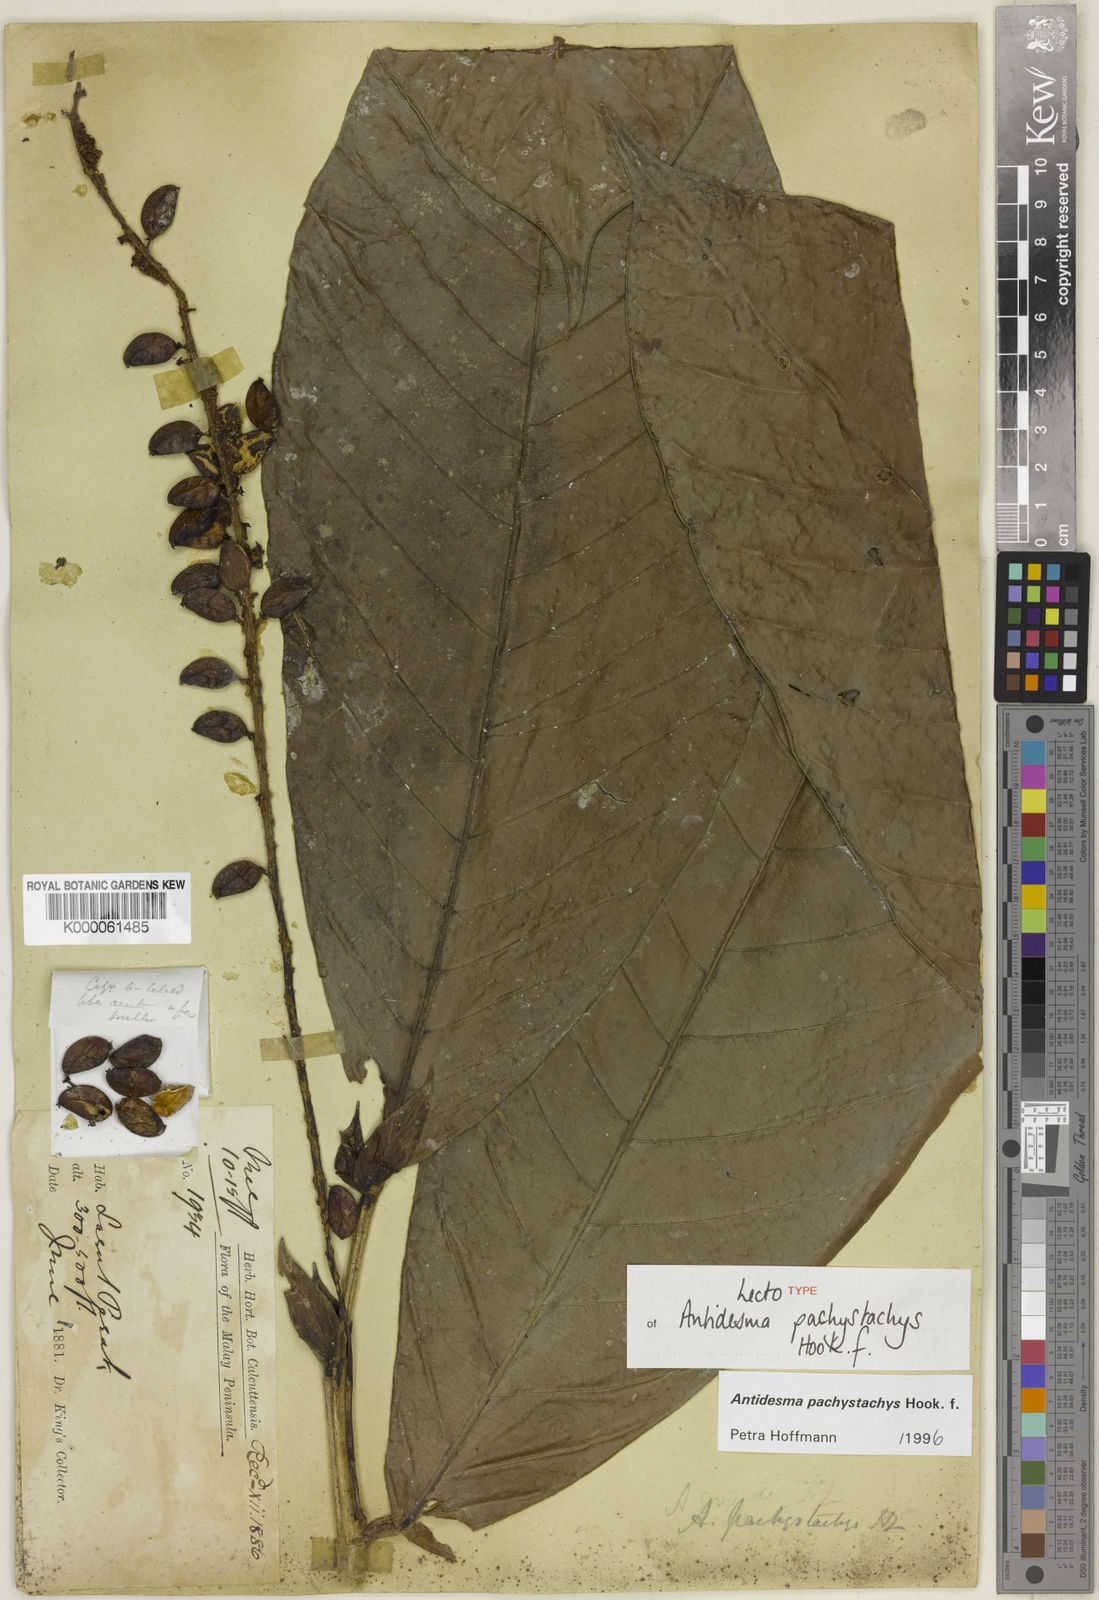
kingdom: Plantae
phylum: Tracheophyta
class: Magnoliopsida
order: Malpighiales
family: Phyllanthaceae
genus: Antidesma
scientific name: Antidesma pachystachys
